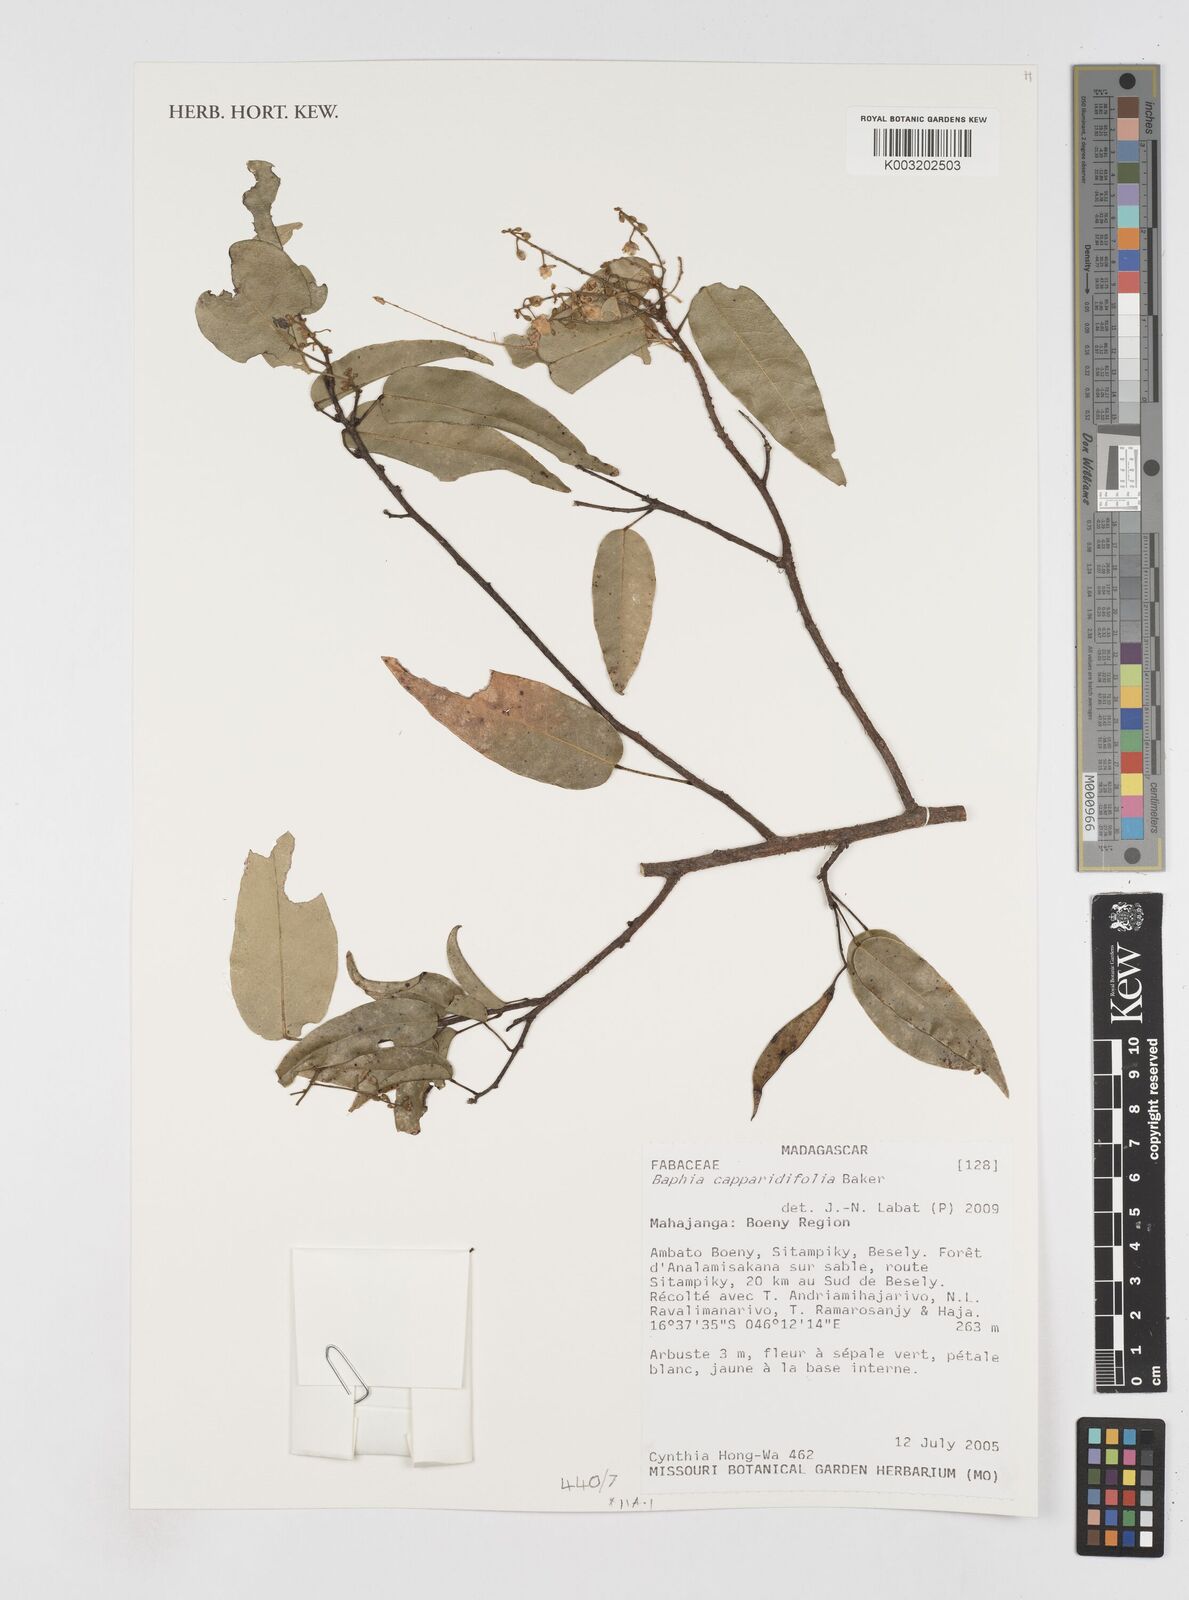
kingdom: Plantae
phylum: Tracheophyta
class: Magnoliopsida
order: Fabales
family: Fabaceae
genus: Baphia
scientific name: Baphia capparidifolia
